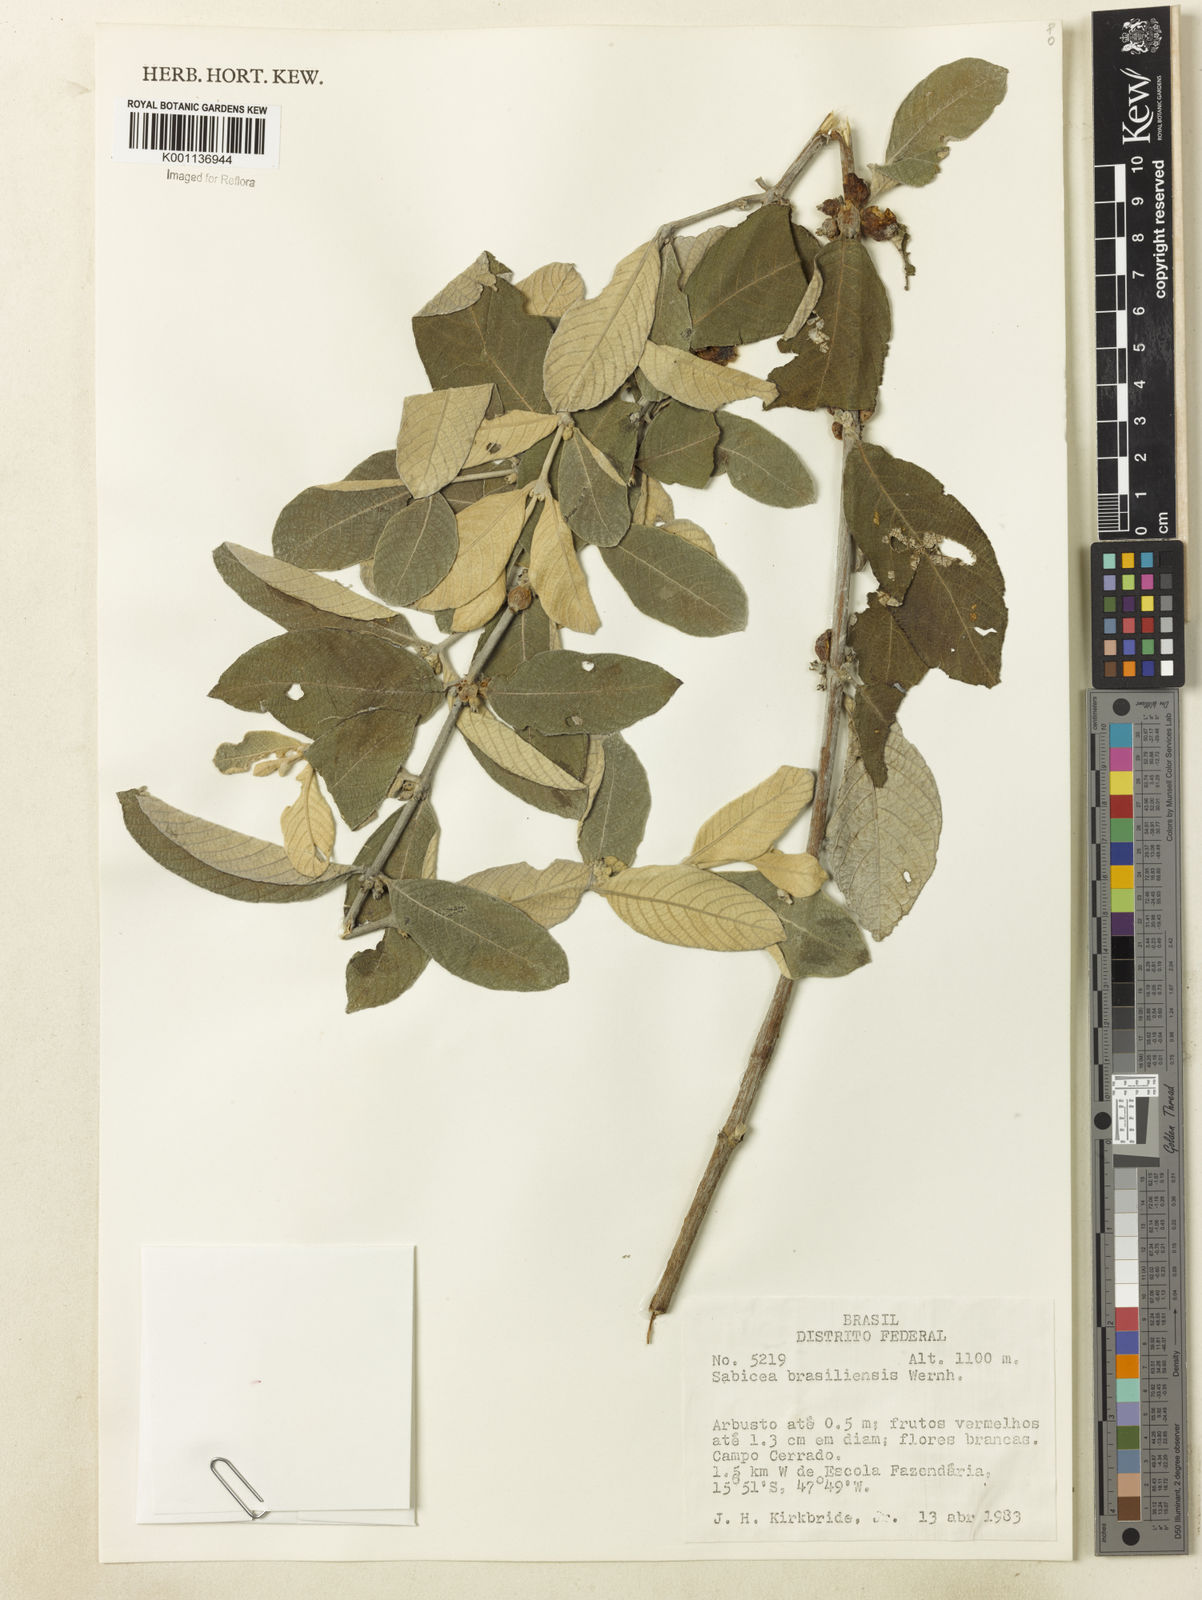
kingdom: Plantae
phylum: Tracheophyta
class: Magnoliopsida
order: Gentianales
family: Rubiaceae
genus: Sabicea
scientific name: Sabicea brasiliensis
